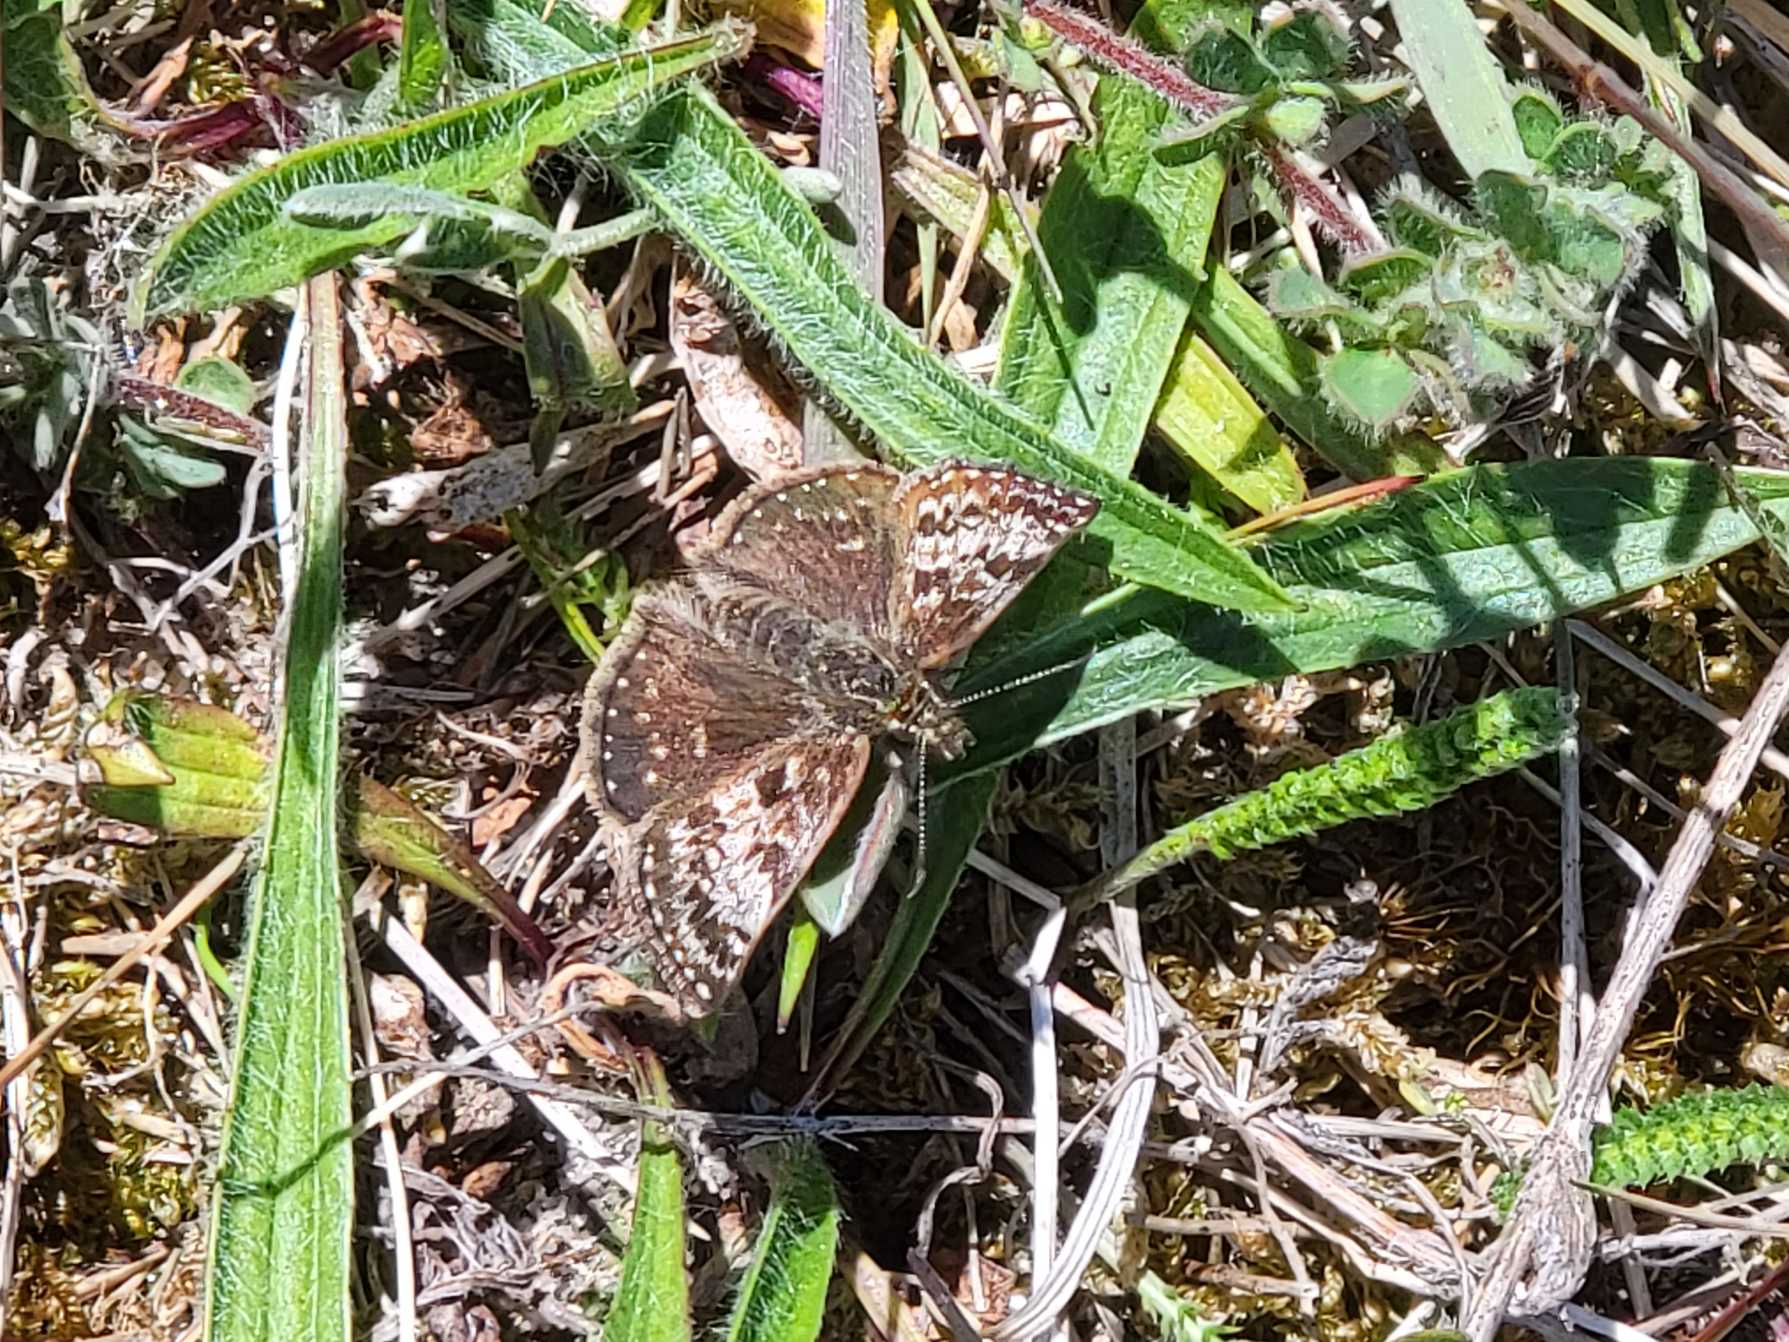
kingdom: Animalia
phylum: Arthropoda
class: Insecta
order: Lepidoptera
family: Hesperiidae
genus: Erynnis
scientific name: Erynnis tages
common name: Gråbåndet bredpande
